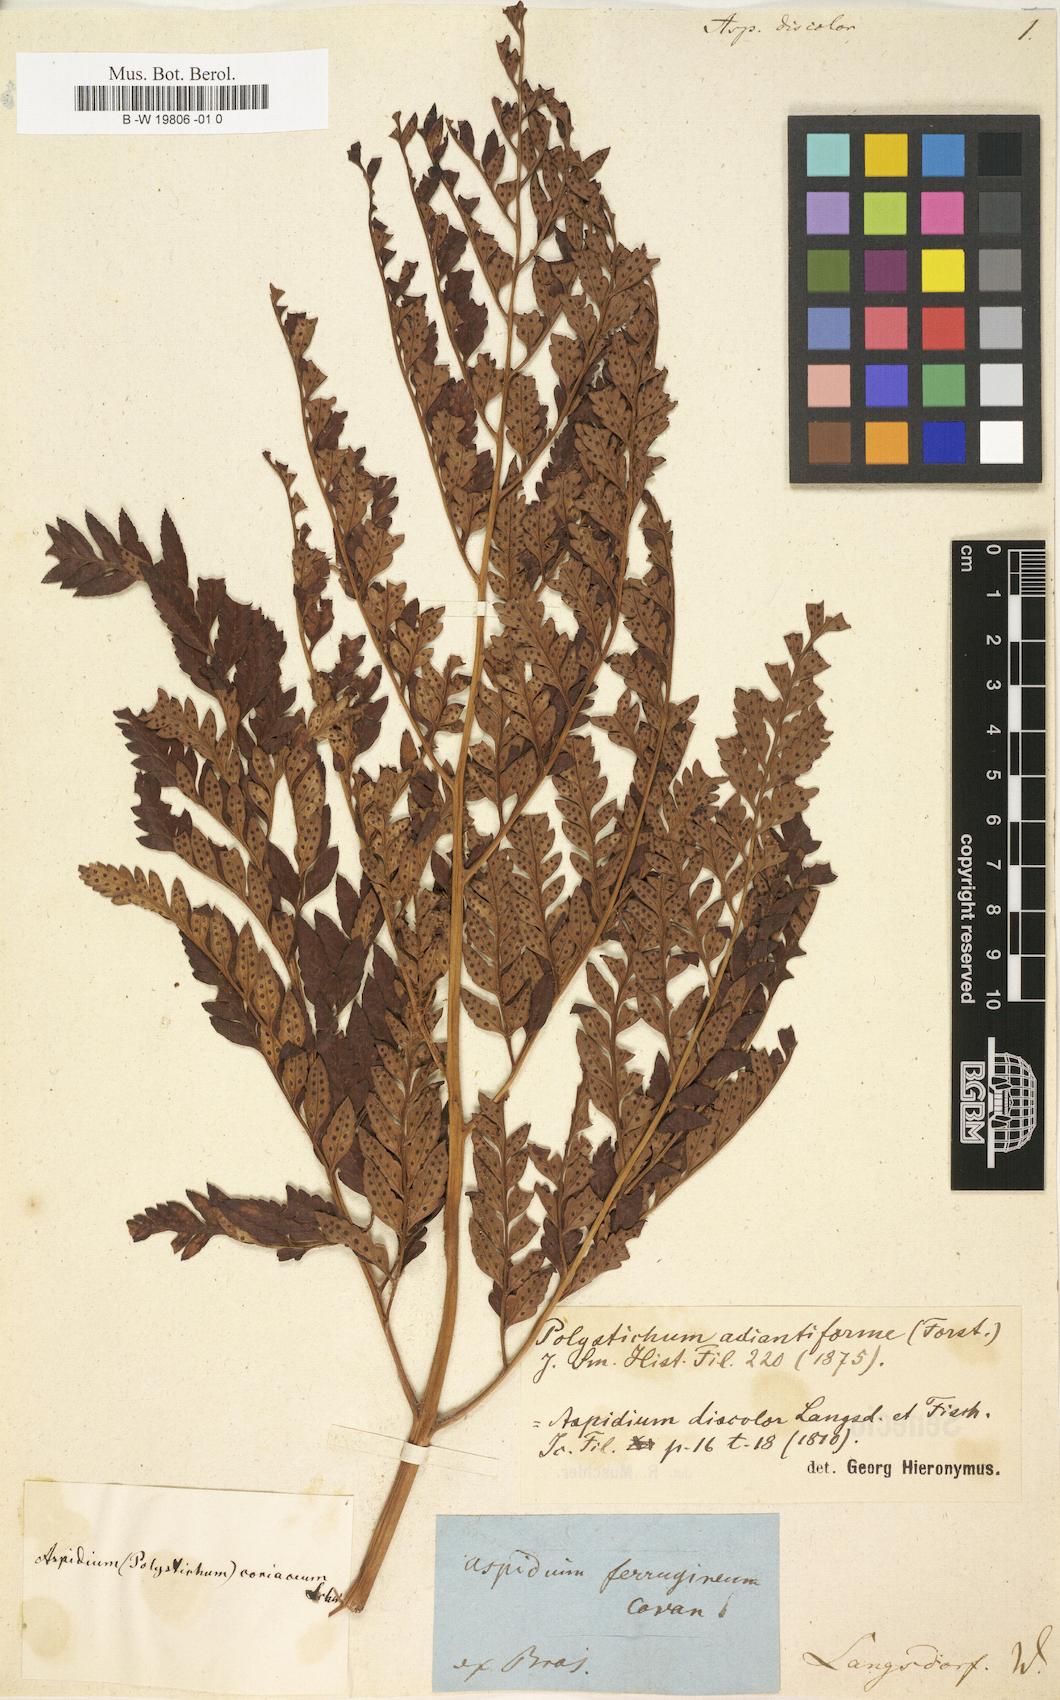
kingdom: Plantae
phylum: Tracheophyta
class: Polypodiopsida
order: Polypodiales
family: Dryopteridaceae
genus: Rumohra
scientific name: Rumohra adiantiformis
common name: Leather fern
